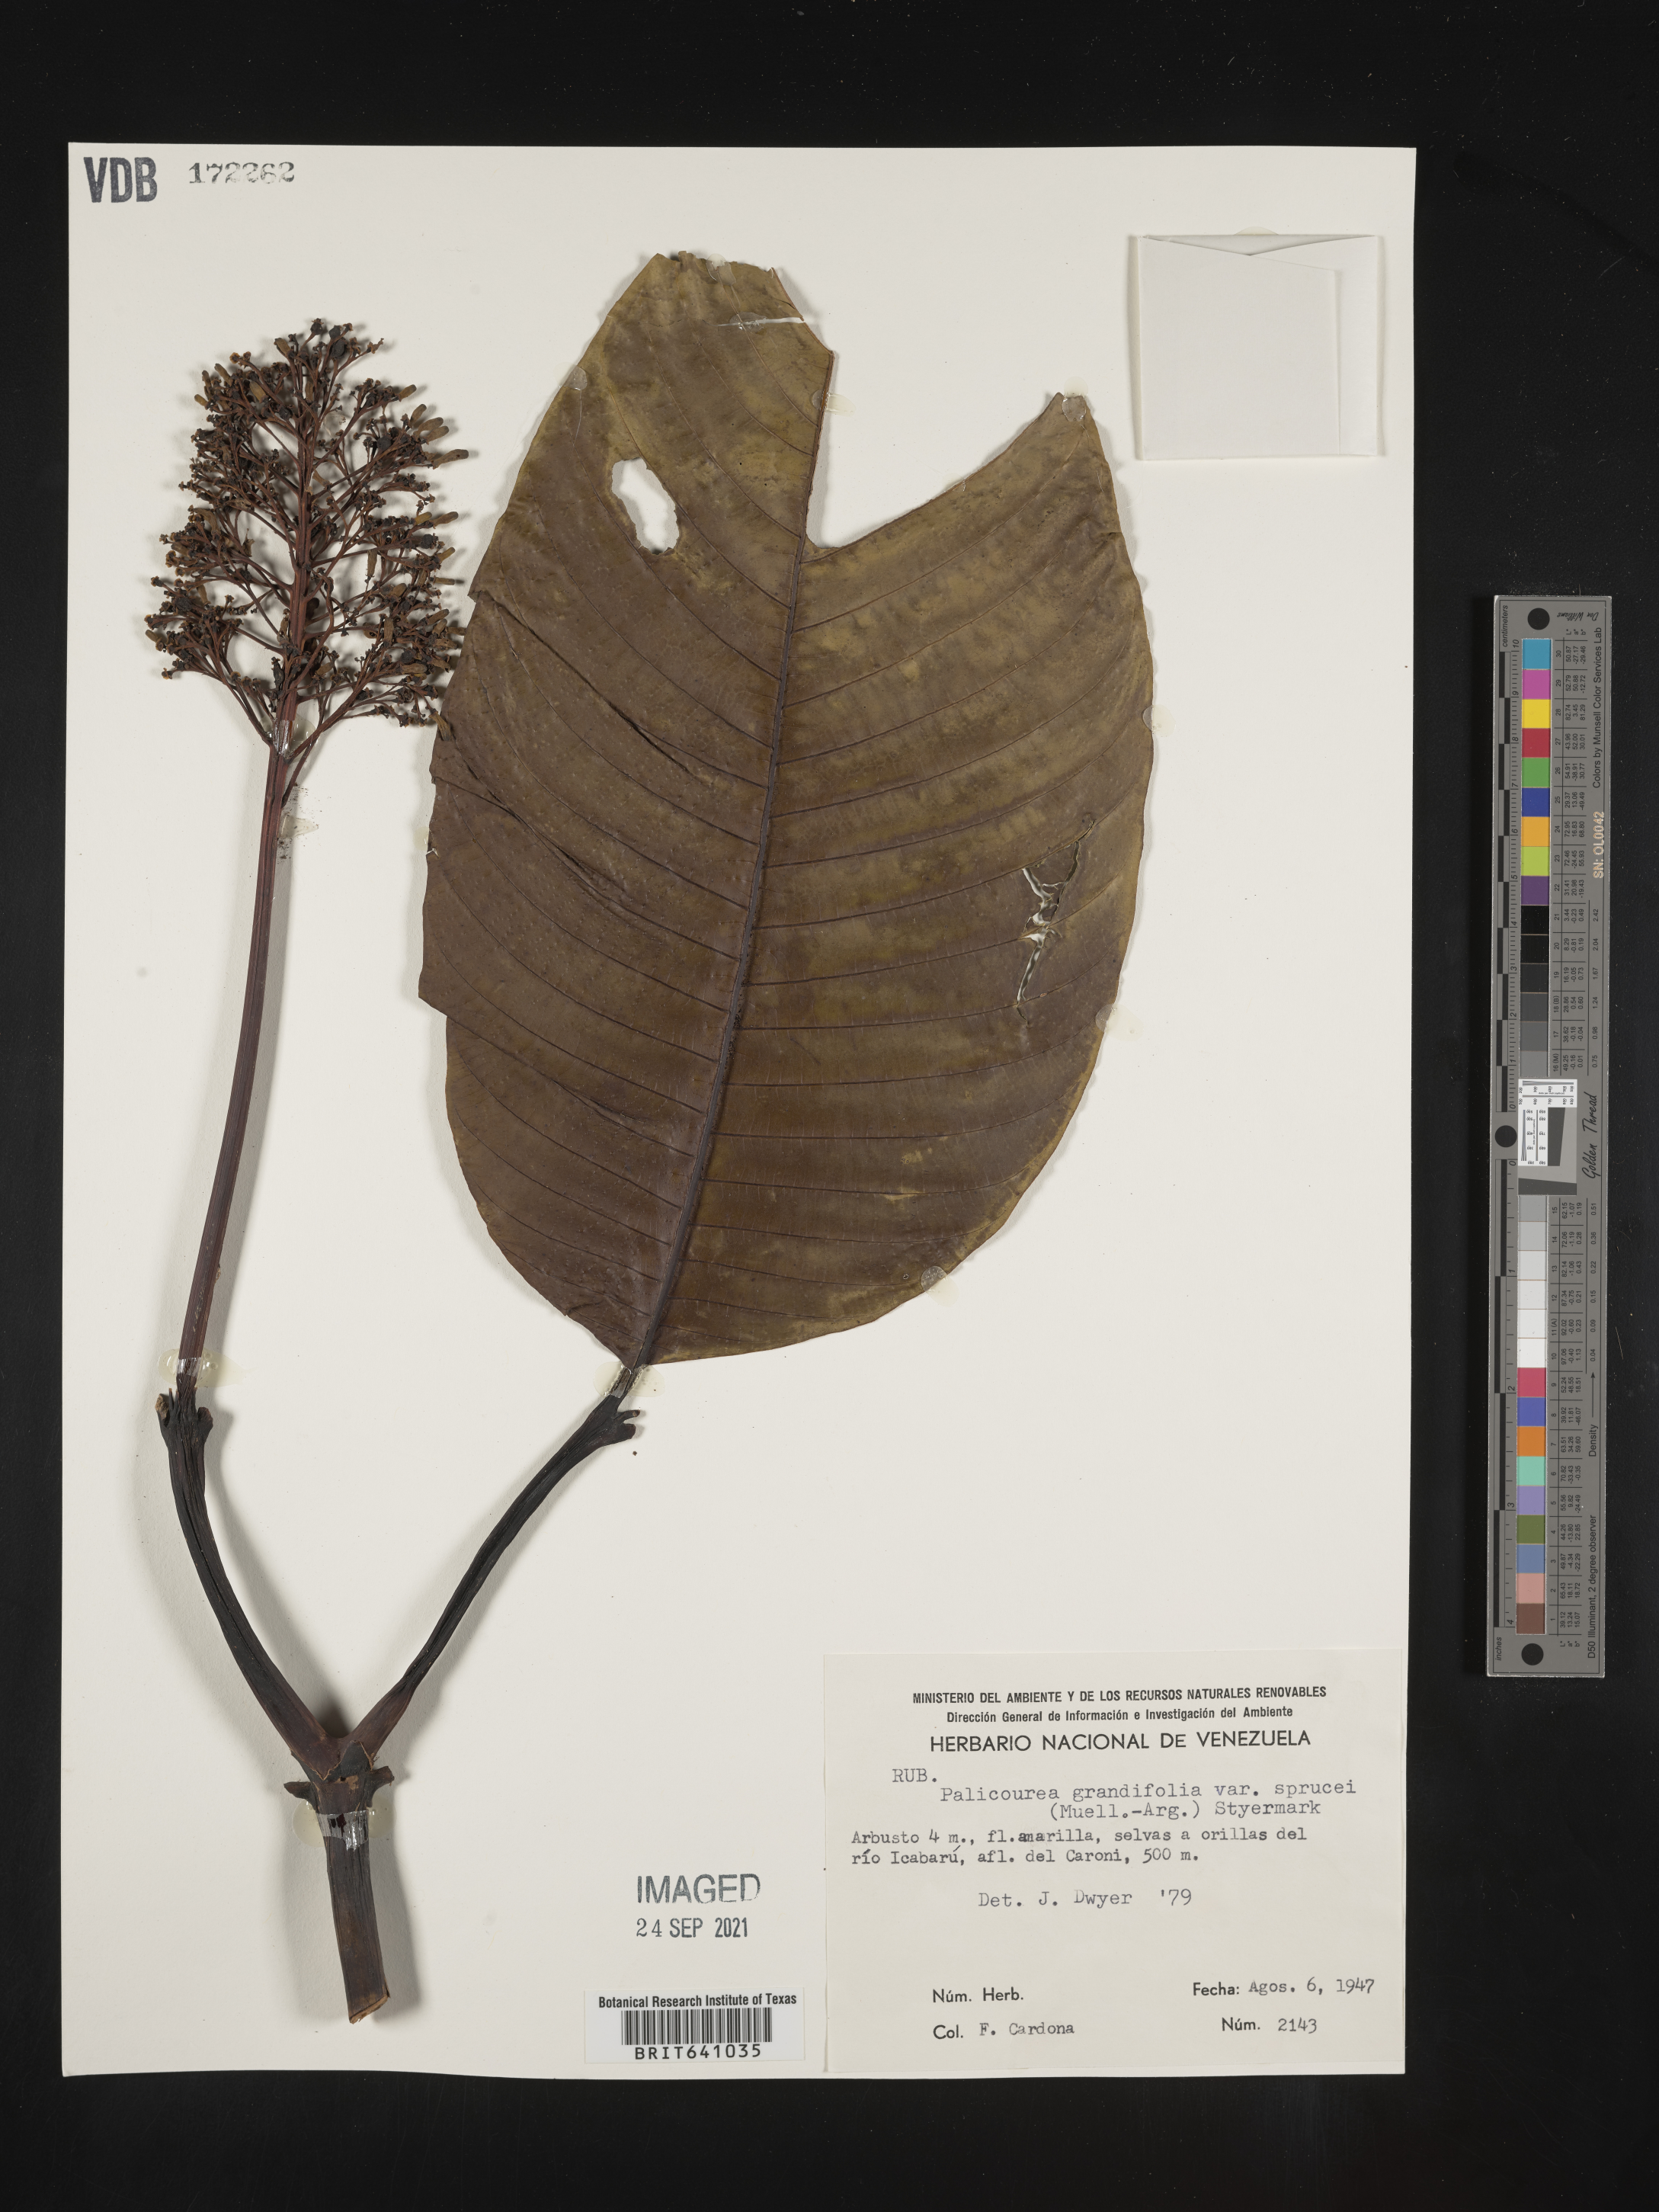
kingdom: Plantae
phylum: Tracheophyta
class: Magnoliopsida
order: Gentianales
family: Rubiaceae
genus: Palicourea
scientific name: Palicourea
